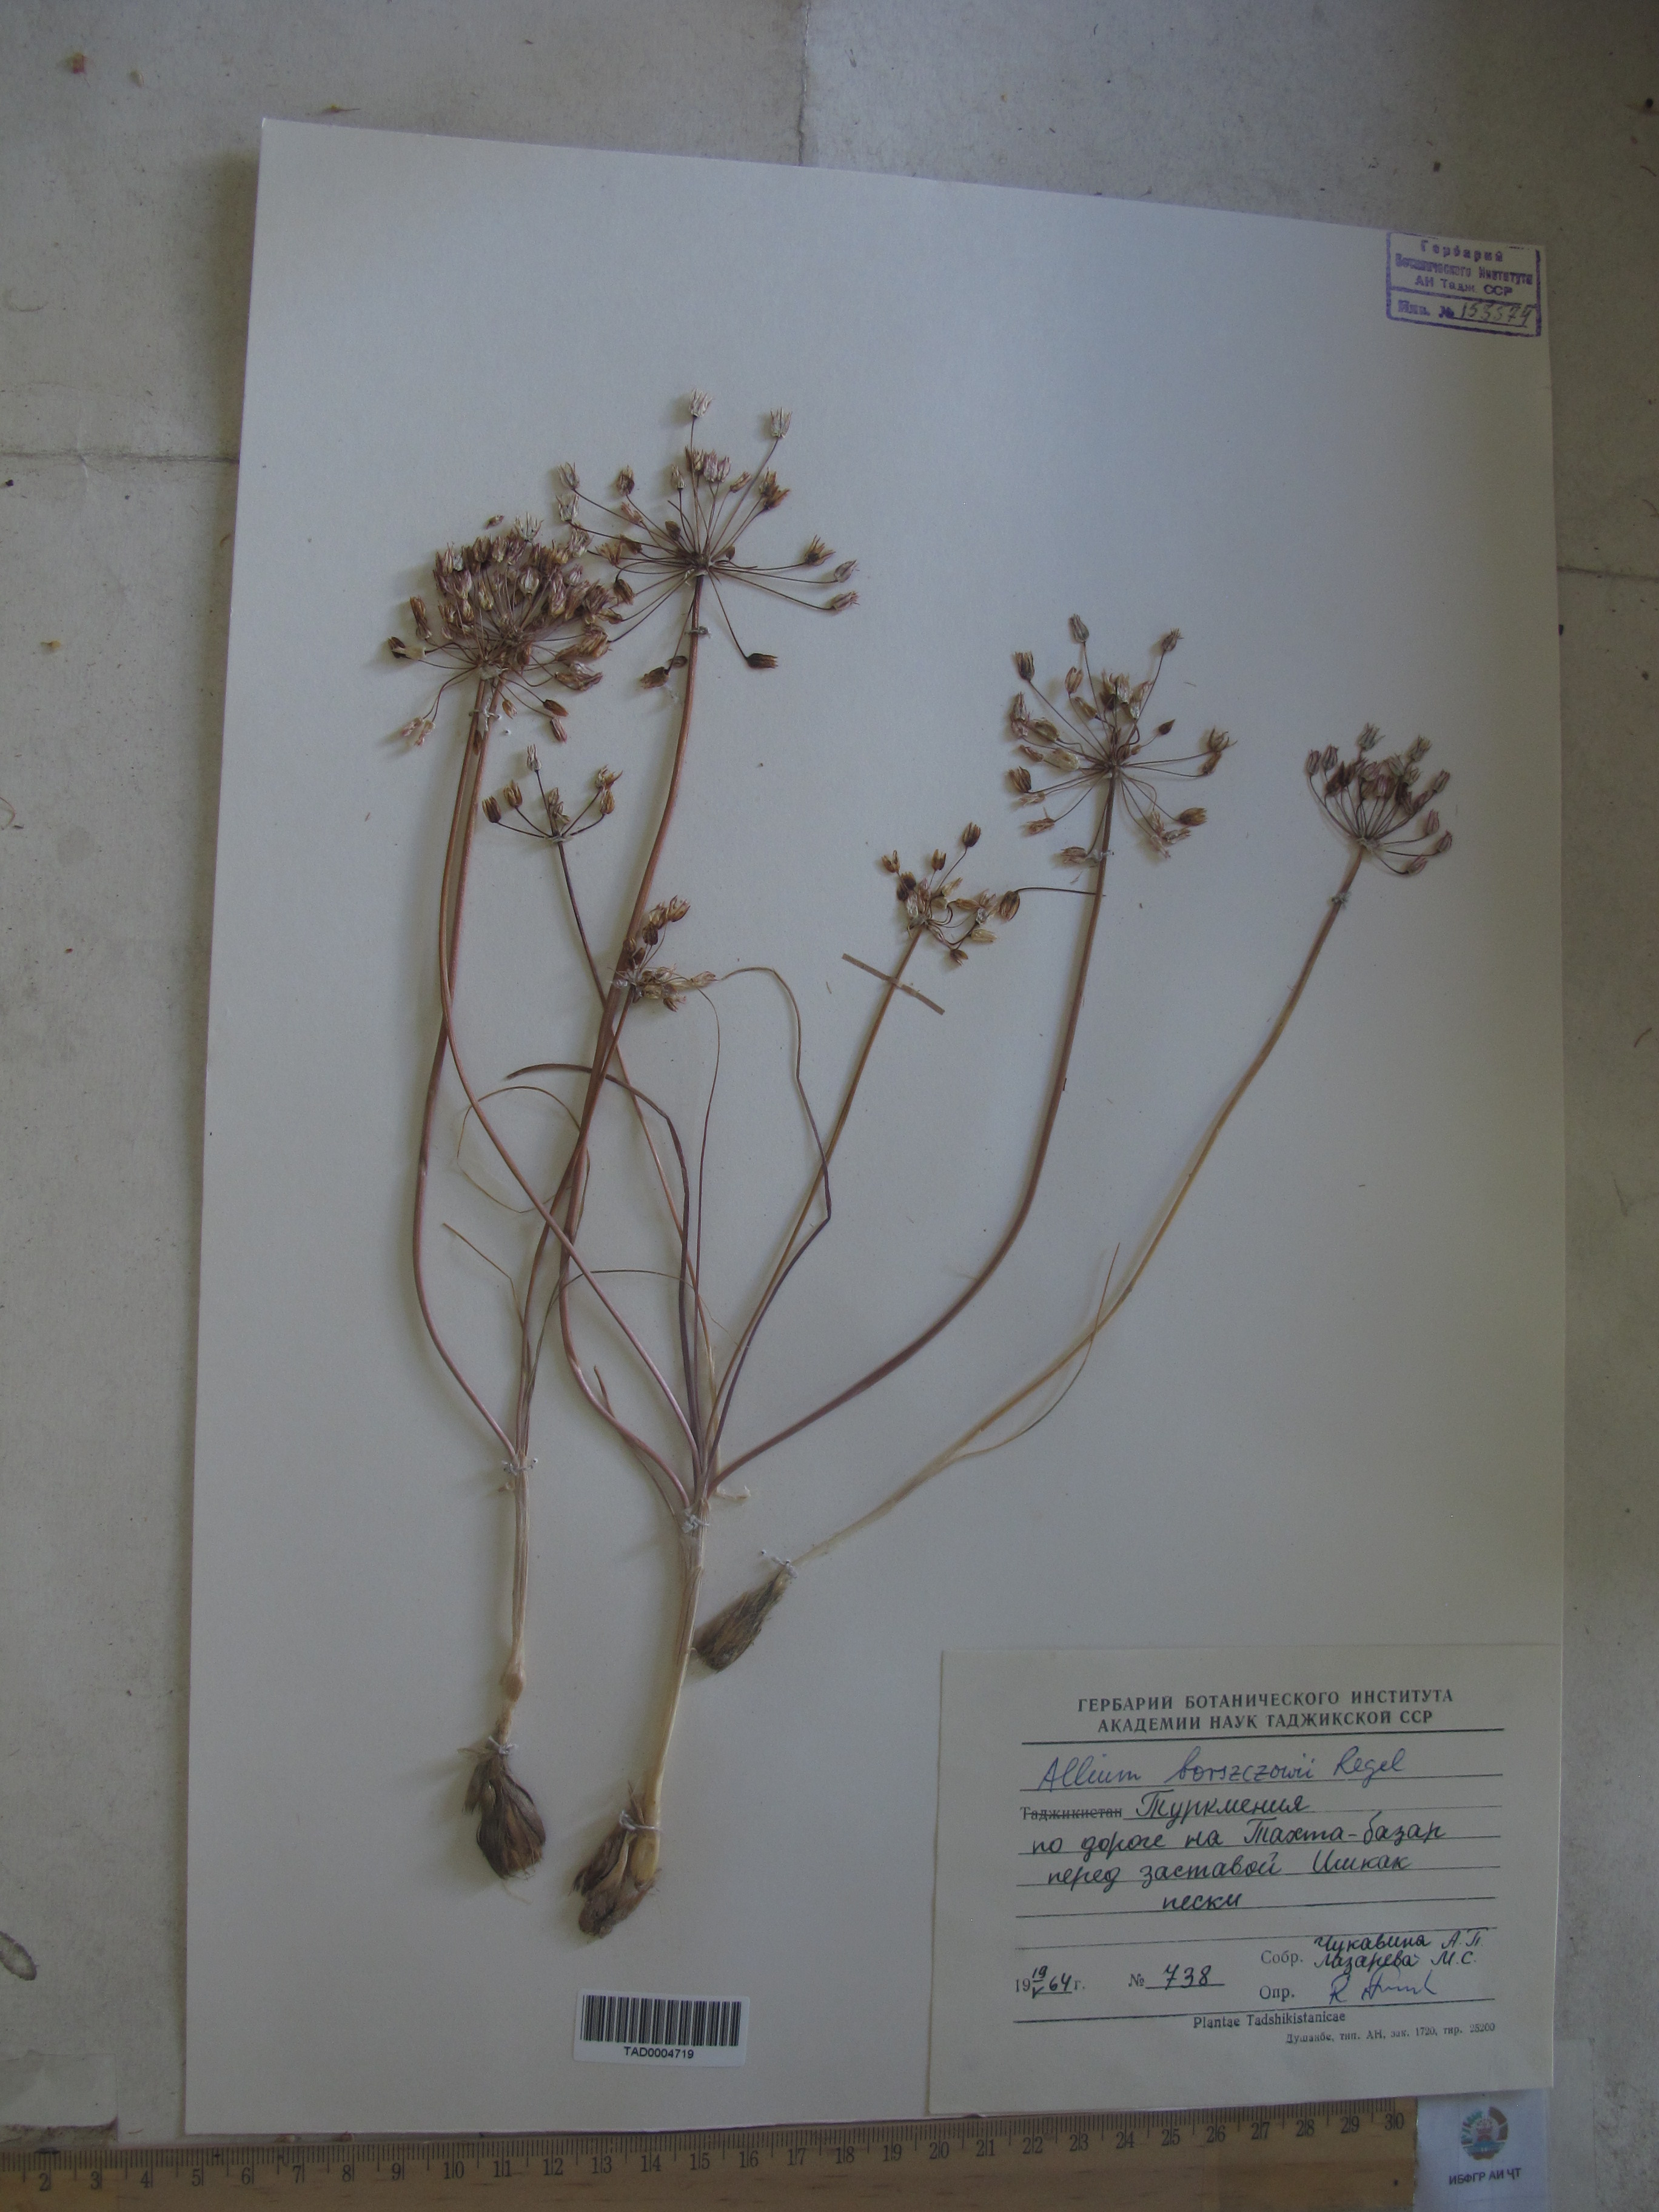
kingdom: Plantae
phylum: Tracheophyta
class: Liliopsida
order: Asparagales
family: Amaryllidaceae
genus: Allium
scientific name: Allium borszczowii
